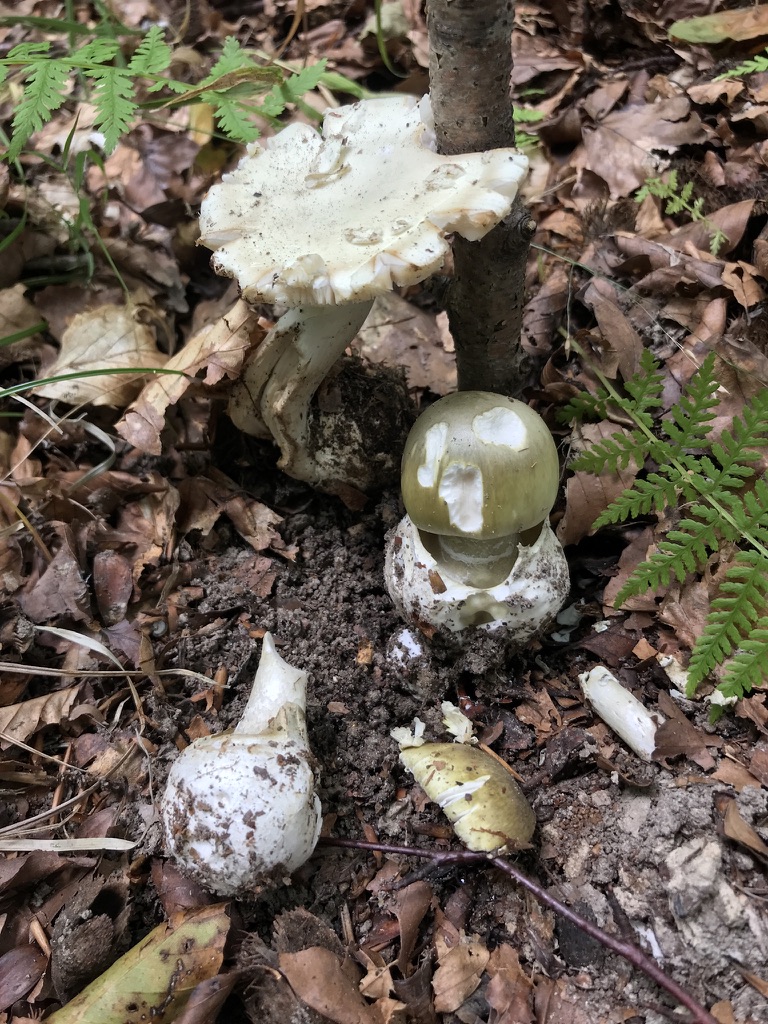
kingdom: Fungi
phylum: Basidiomycota
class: Agaricomycetes
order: Agaricales
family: Amanitaceae
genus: Amanita
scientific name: Amanita phalloides
